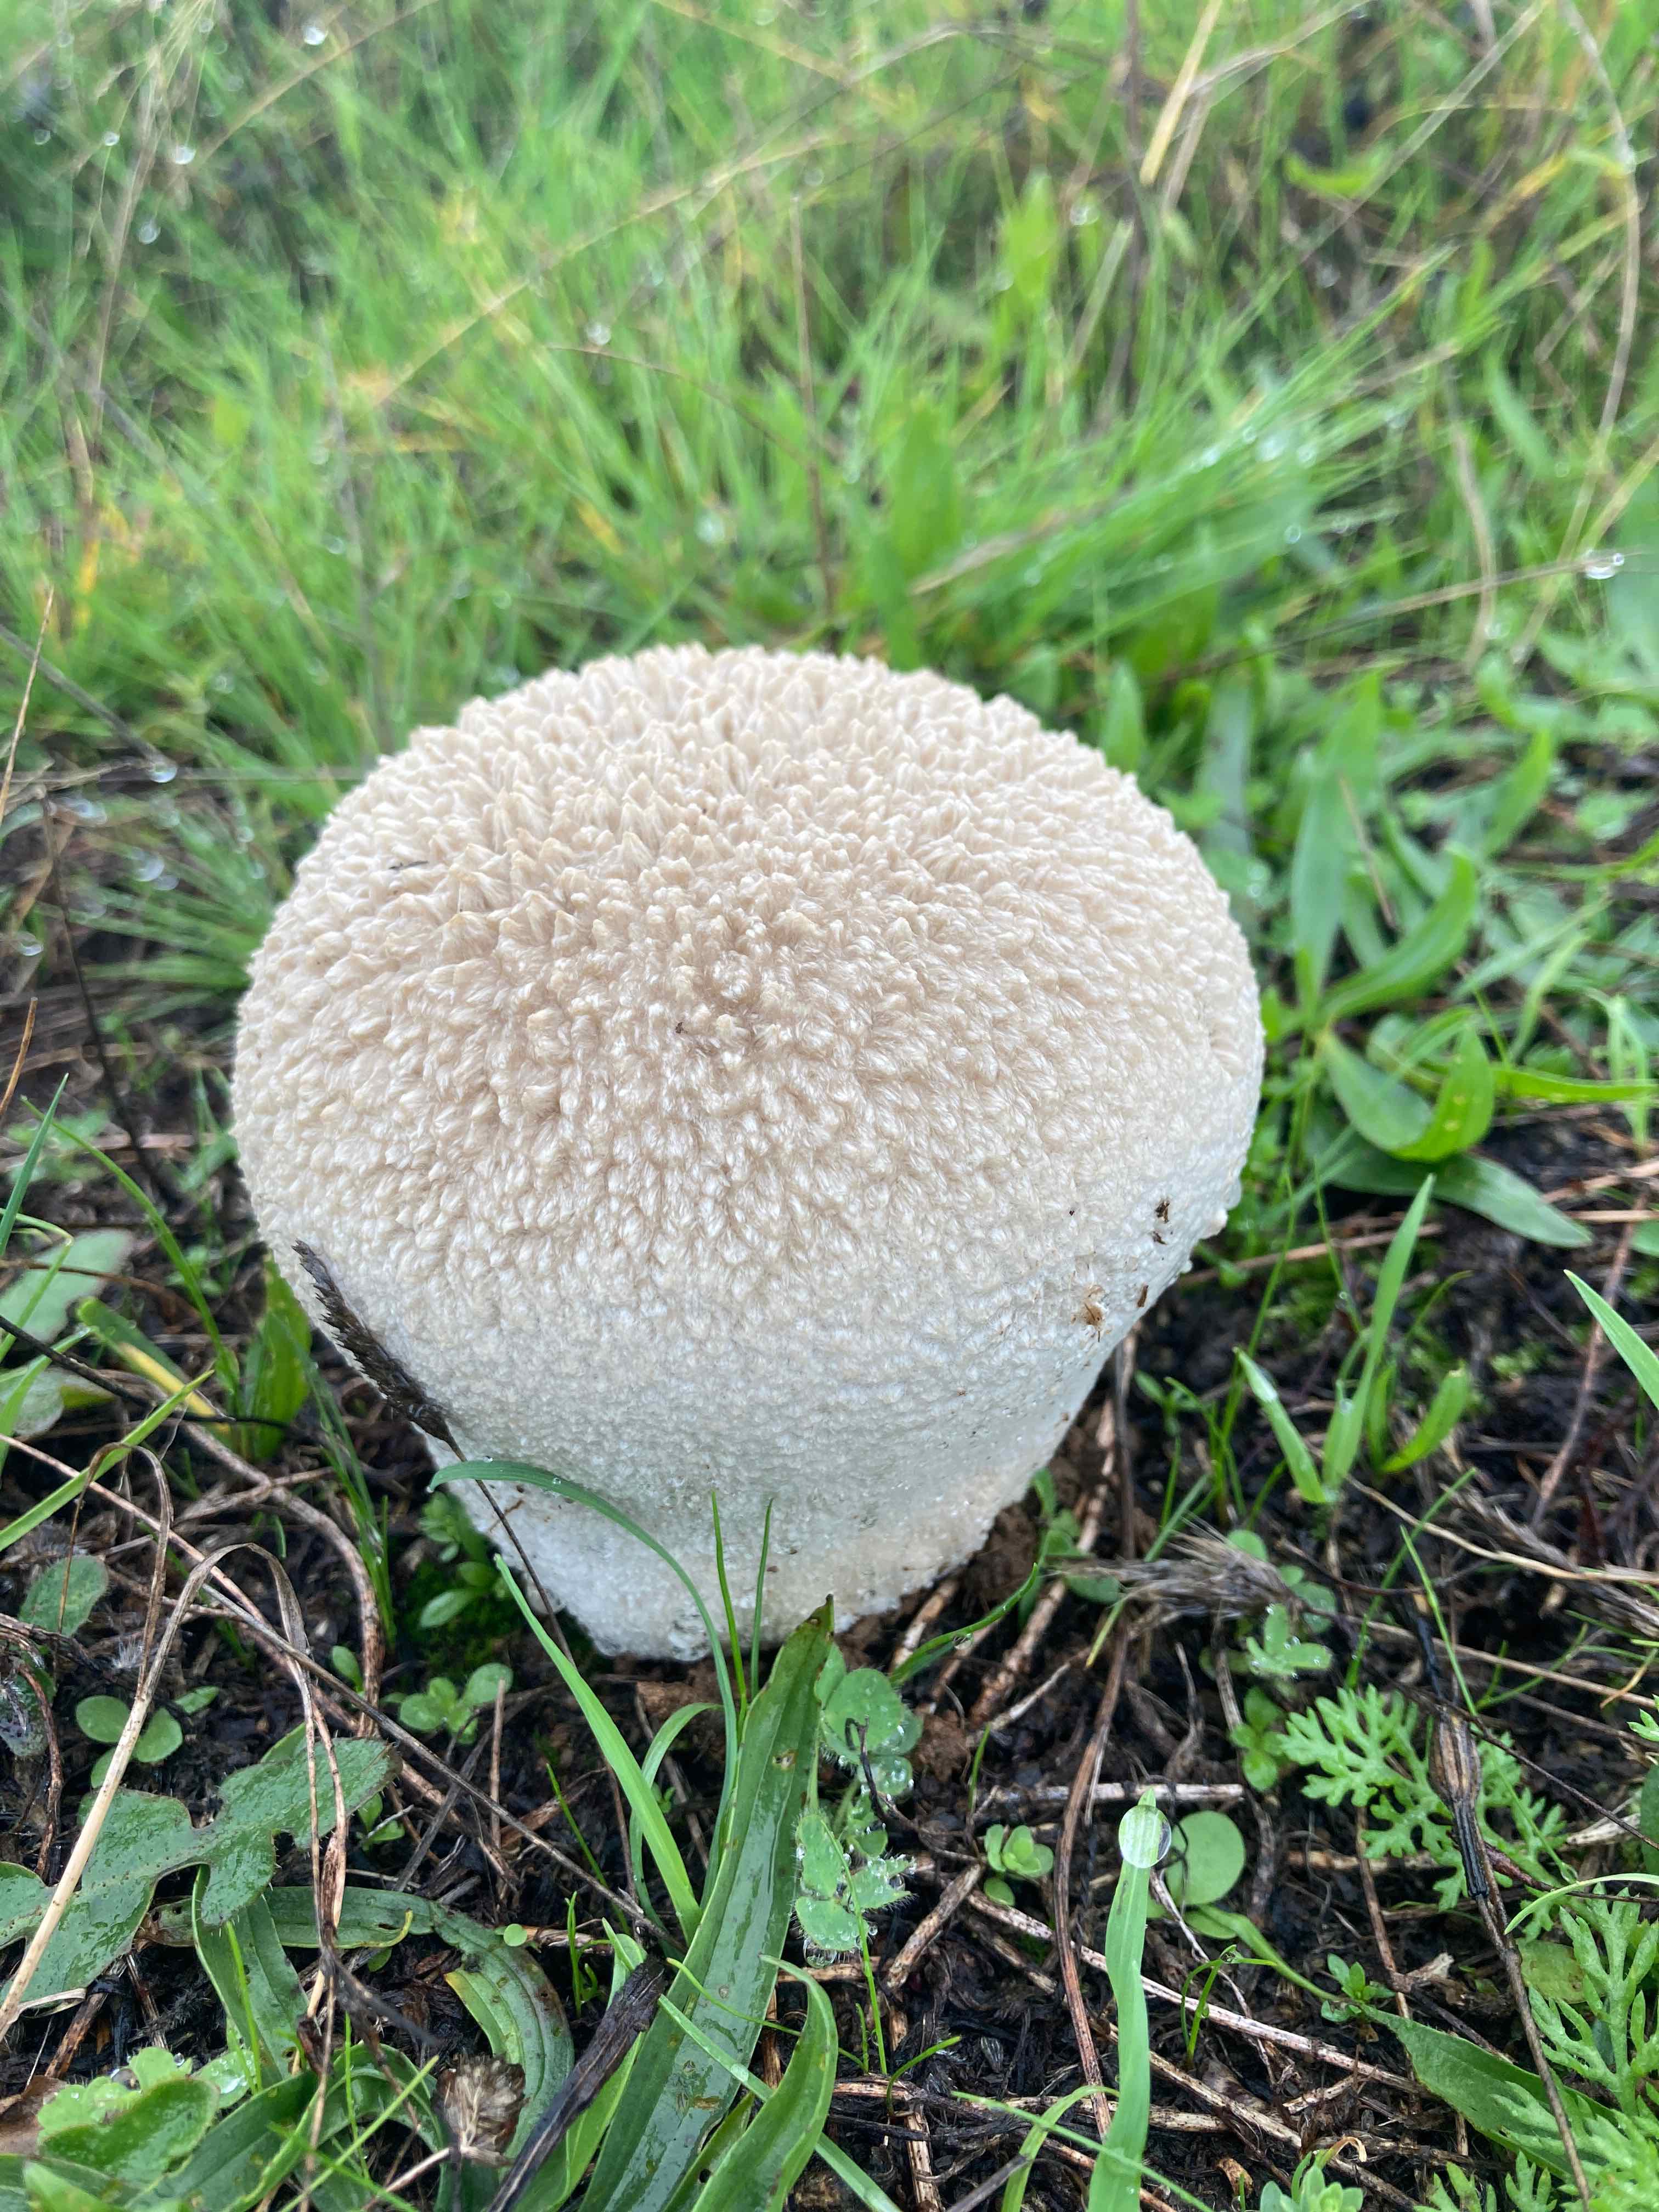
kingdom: Fungi
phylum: Basidiomycota
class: Agaricomycetes
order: Agaricales
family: Lycoperdaceae
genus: Bovistella
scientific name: Bovistella utriformis
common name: skællet støvbold
